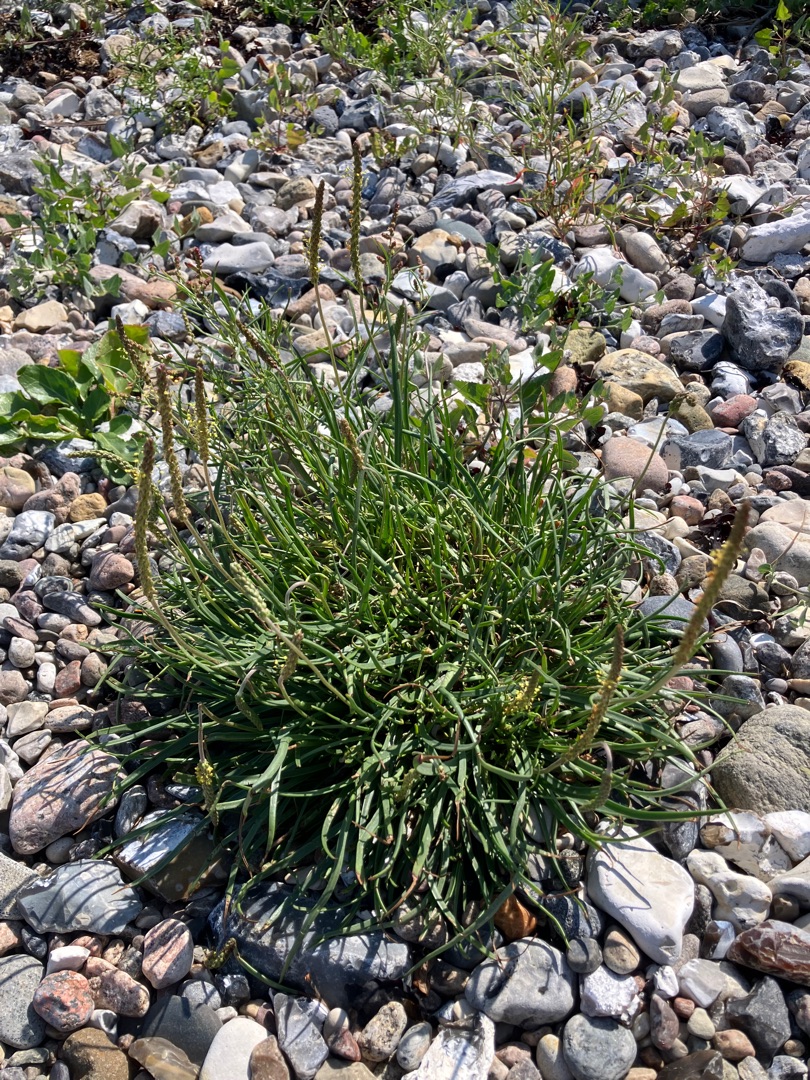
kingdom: Plantae
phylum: Tracheophyta
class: Magnoliopsida
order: Lamiales
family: Plantaginaceae
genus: Plantago
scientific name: Plantago maritima
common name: Strand-vejbred
